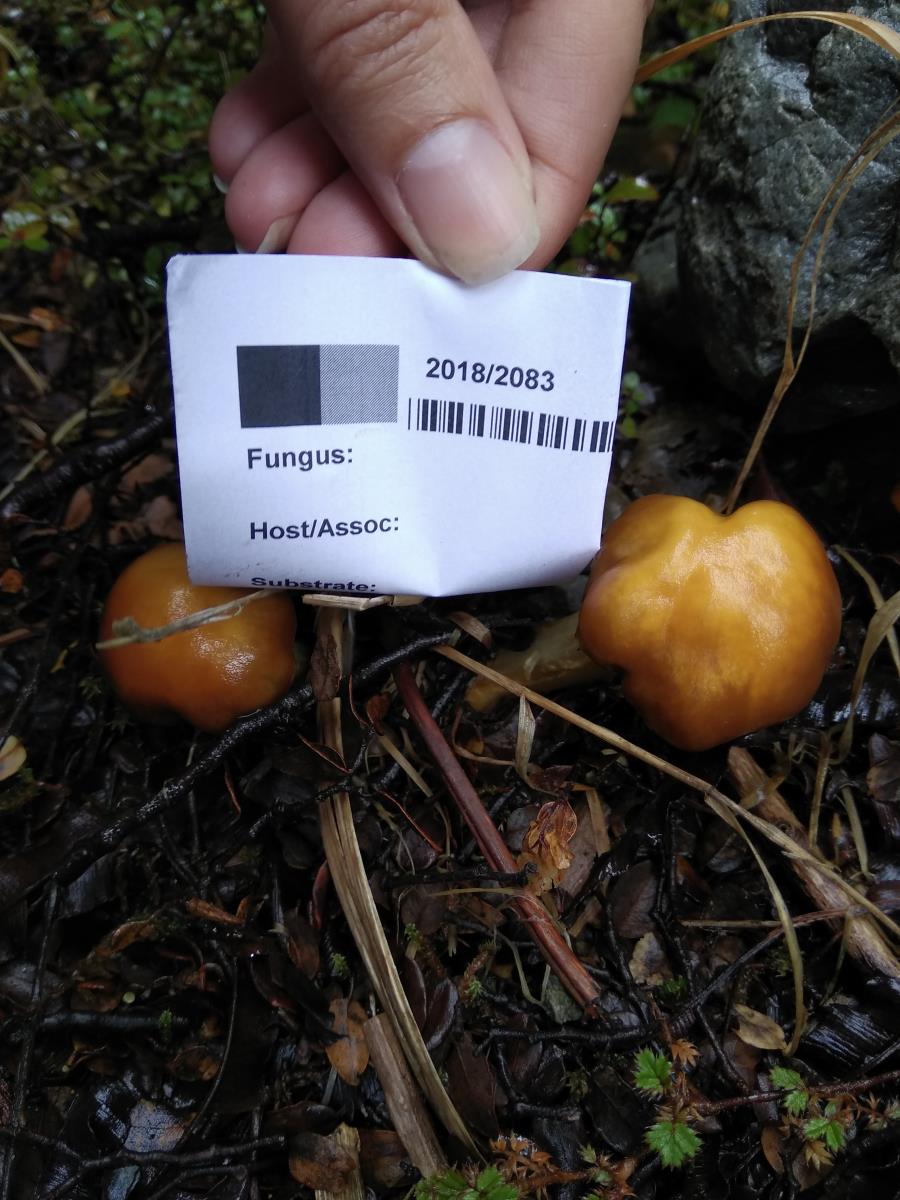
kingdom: Fungi
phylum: Basidiomycota
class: Agaricomycetes
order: Agaricales
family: Cortinariaceae
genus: Cortinarius
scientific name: Cortinarius epiphaeus
